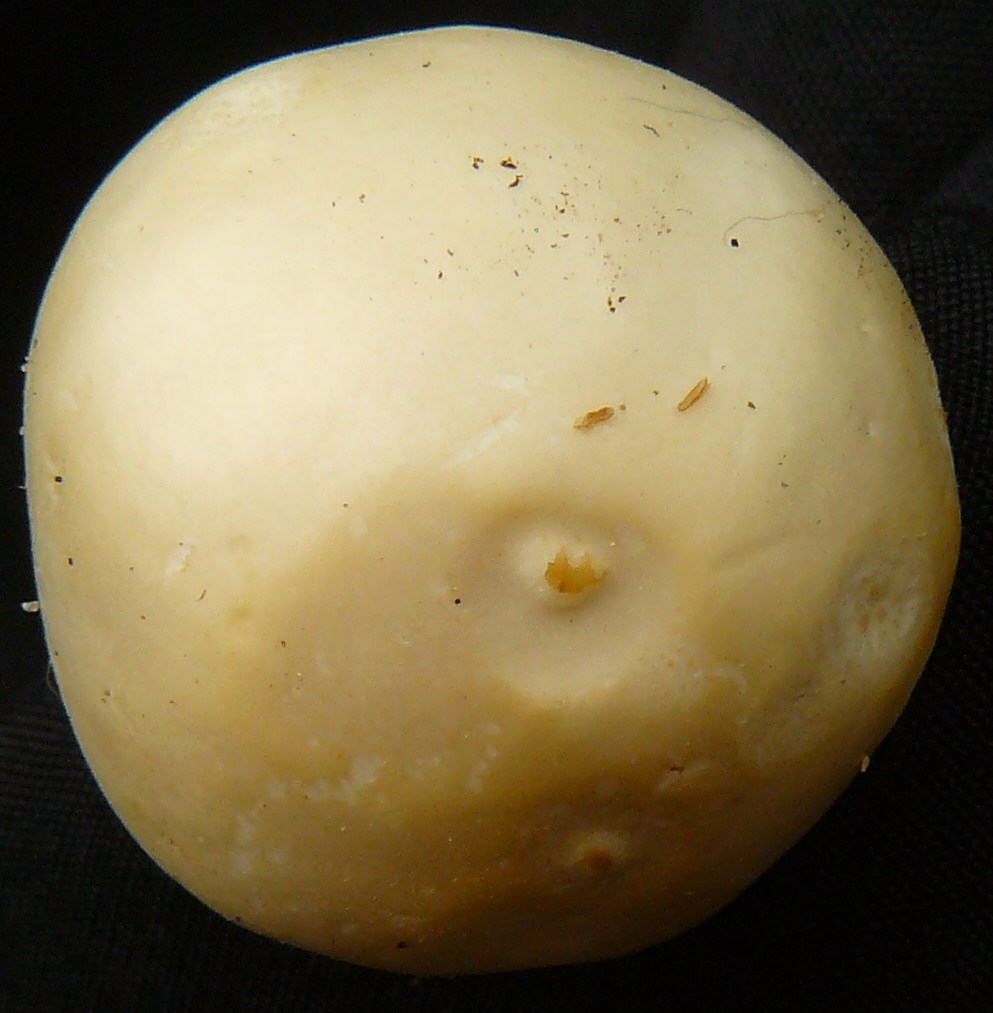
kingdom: Fungi
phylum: Basidiomycota
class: Agaricomycetes
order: Agaricales
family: Strophariaceae
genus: Agrocybe
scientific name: Agrocybe dura
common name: fastkødet agerhat
